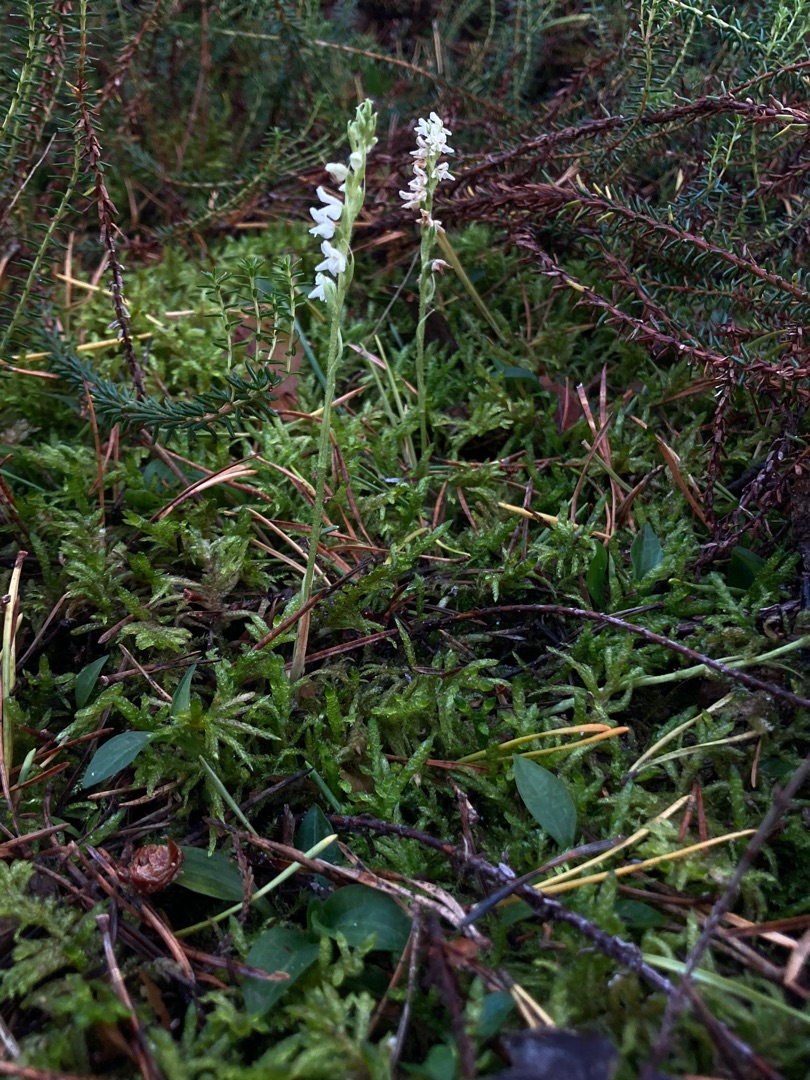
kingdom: Plantae
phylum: Tracheophyta
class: Liliopsida
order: Asparagales
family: Orchidaceae
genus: Goodyera
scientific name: Goodyera repens
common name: Knærod
